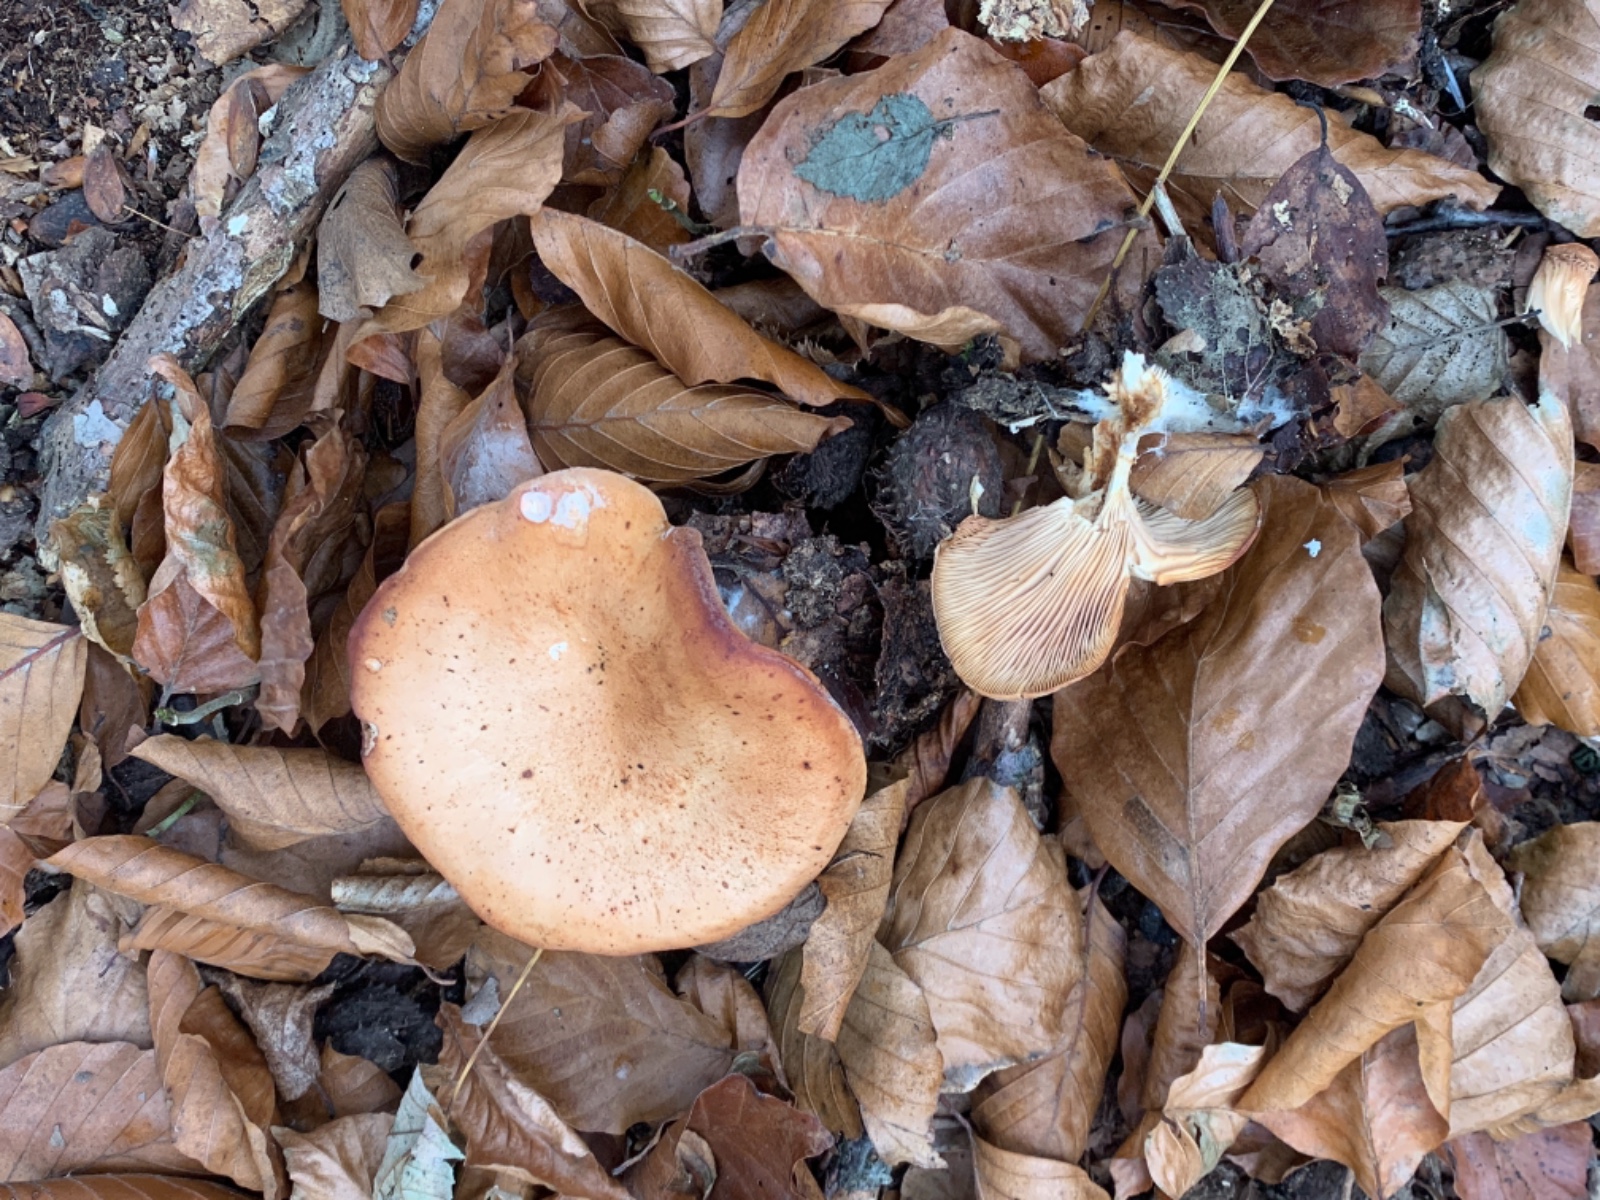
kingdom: Fungi
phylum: Basidiomycota
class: Agaricomycetes
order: Agaricales
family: Tricholomataceae
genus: Paralepista
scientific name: Paralepista flaccida
